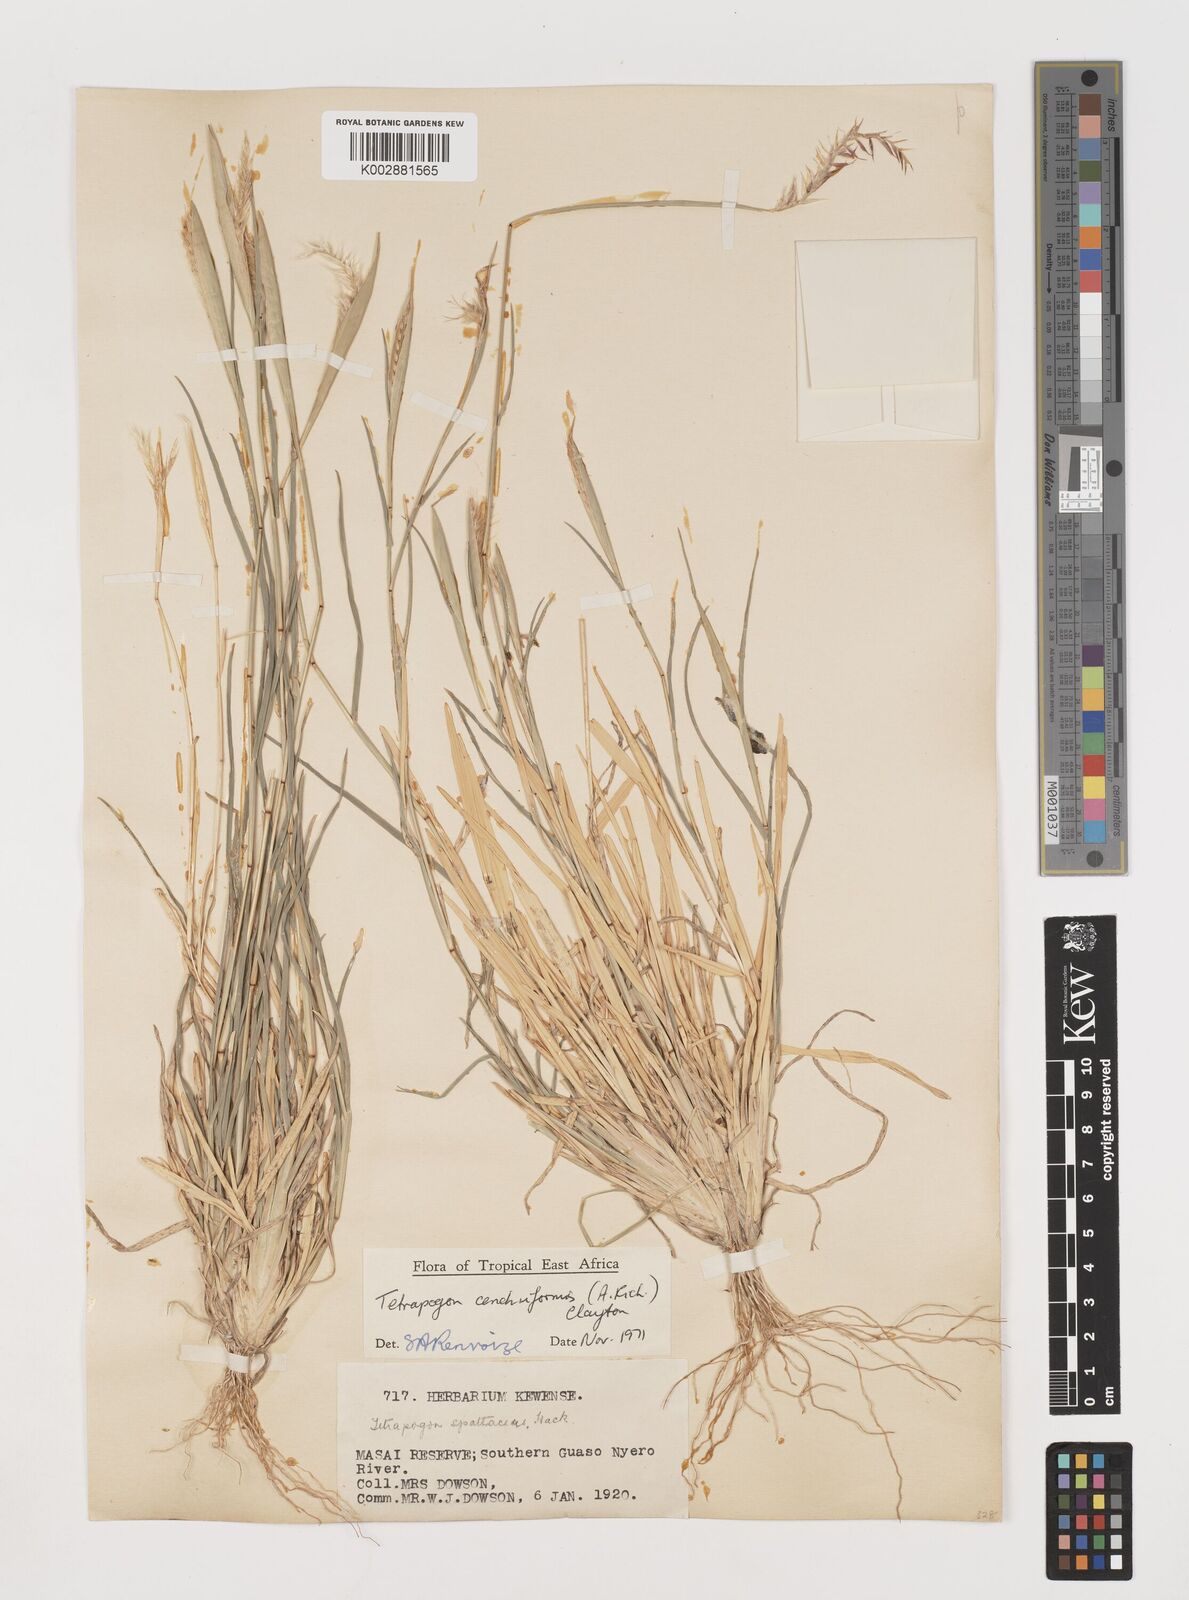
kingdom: Plantae
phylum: Tracheophyta
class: Liliopsida
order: Poales
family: Poaceae
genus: Tetrapogon
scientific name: Tetrapogon cenchriformis
